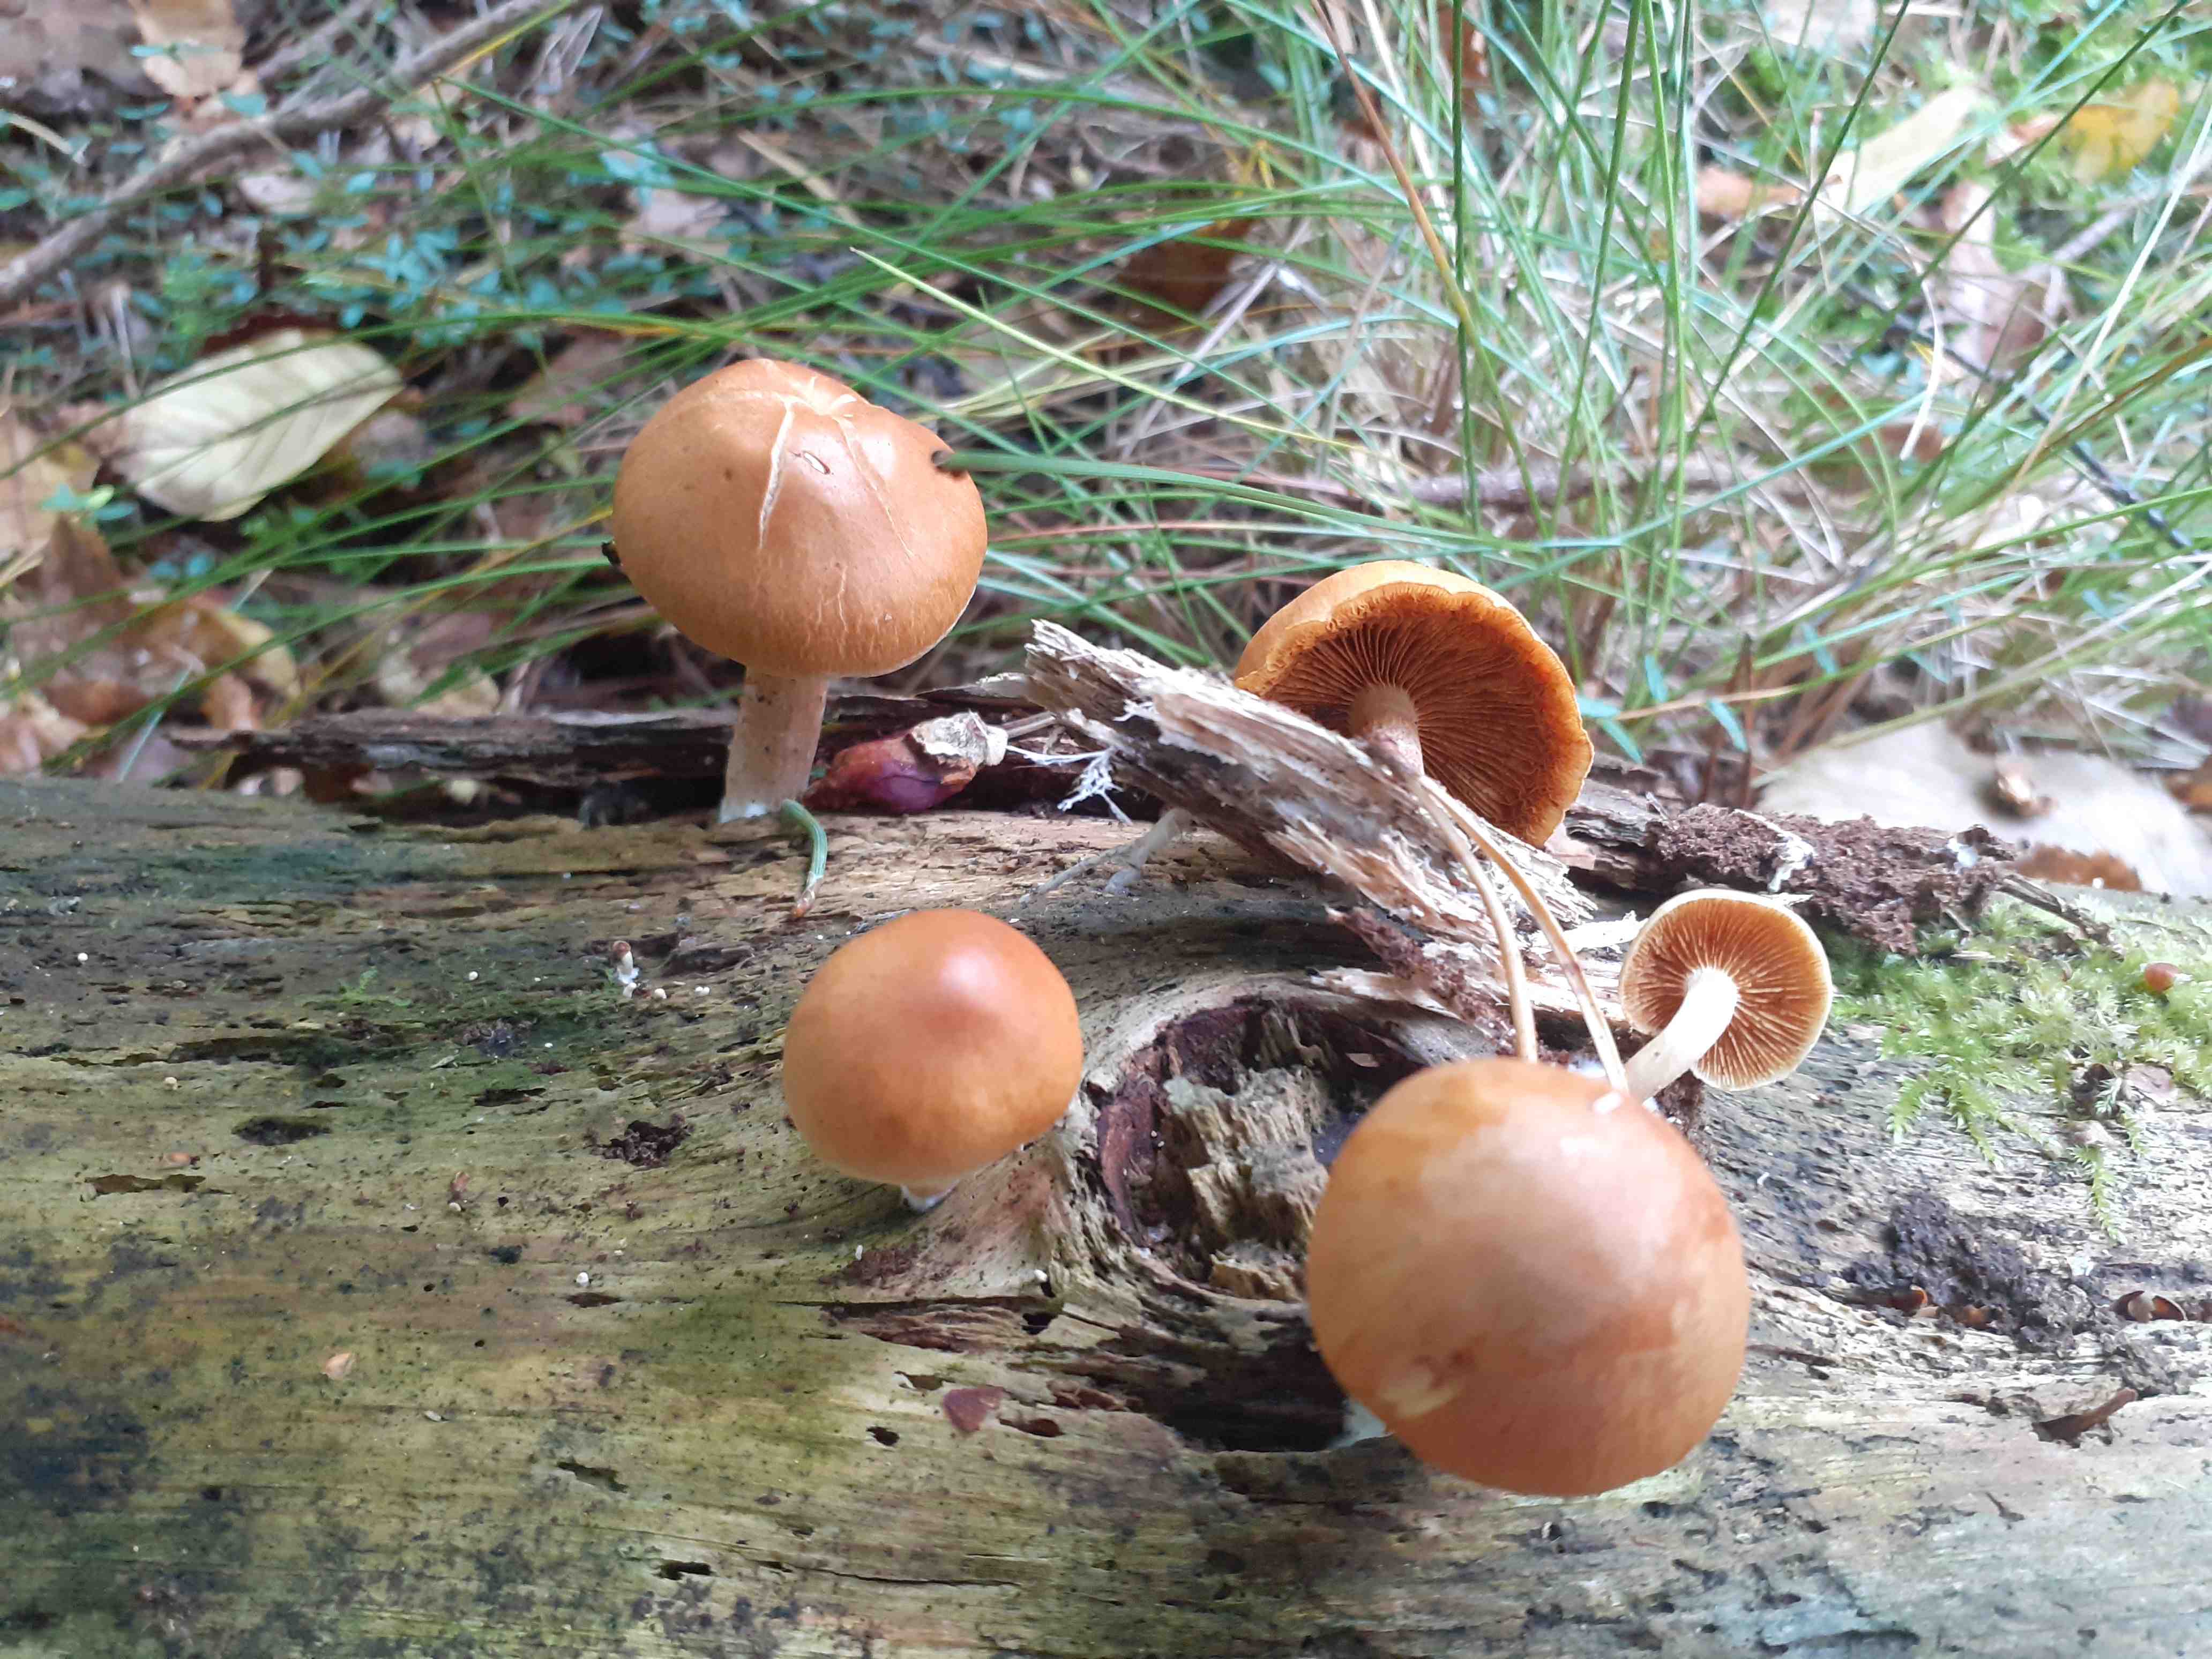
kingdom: Fungi
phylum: Basidiomycota
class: Agaricomycetes
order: Agaricales
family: Hymenogastraceae
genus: Gymnopilus
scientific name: Gymnopilus penetrans
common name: plettet flammehat
